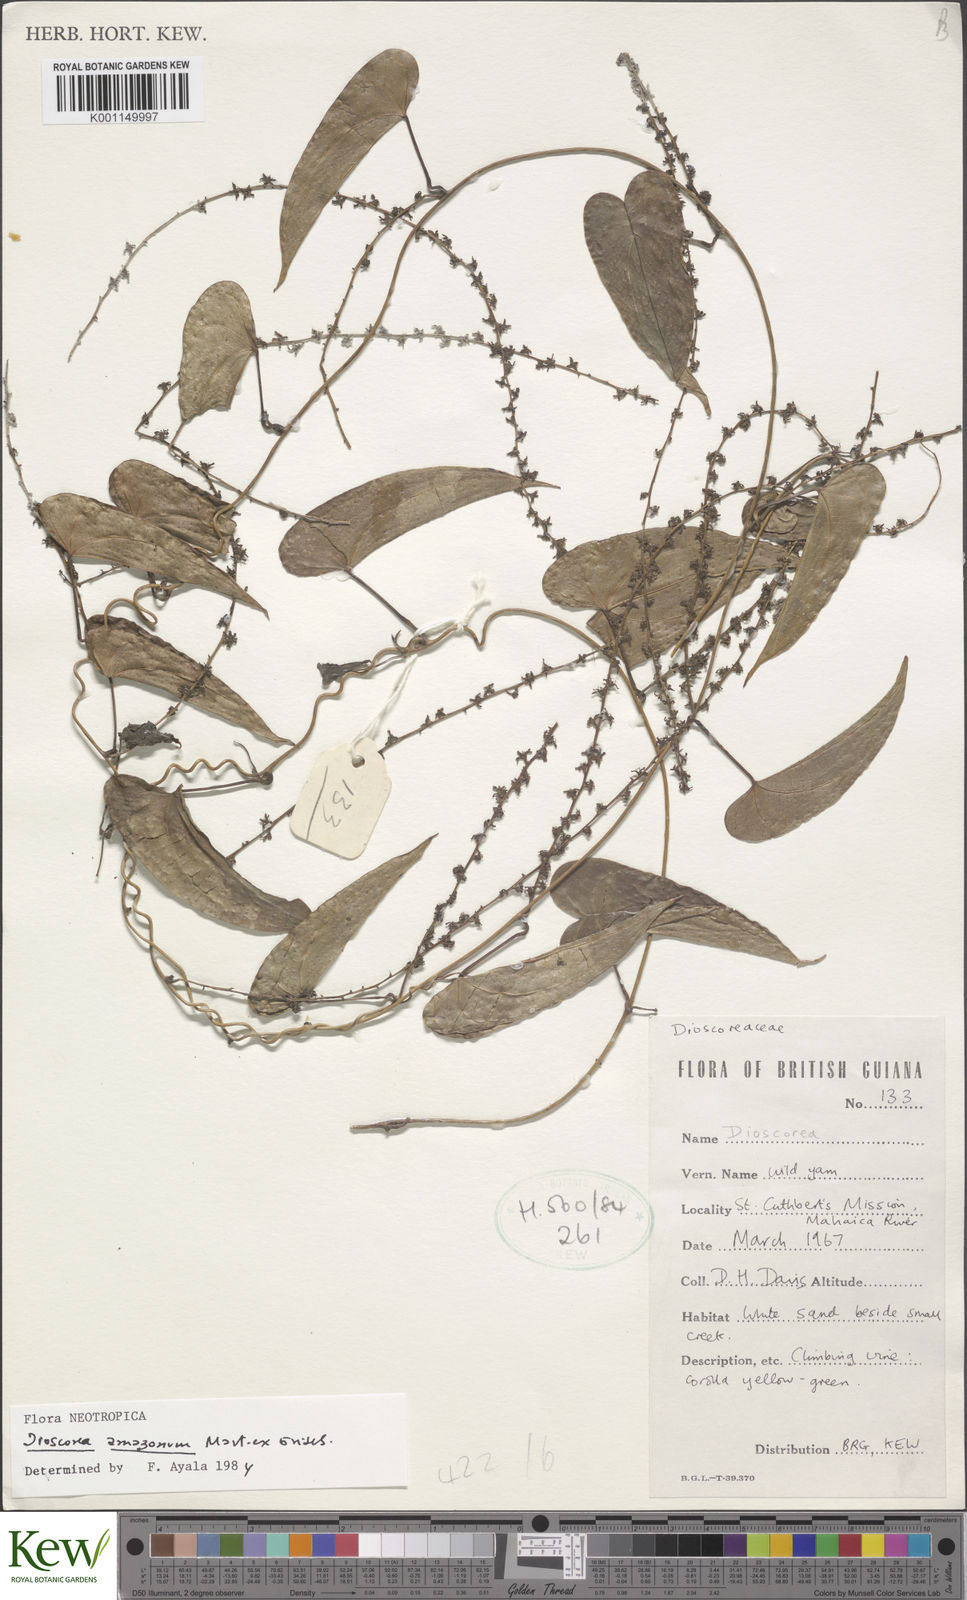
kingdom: Plantae
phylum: Tracheophyta
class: Liliopsida
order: Dioscoreales
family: Dioscoreaceae
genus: Dioscorea
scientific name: Dioscorea trichanthera
